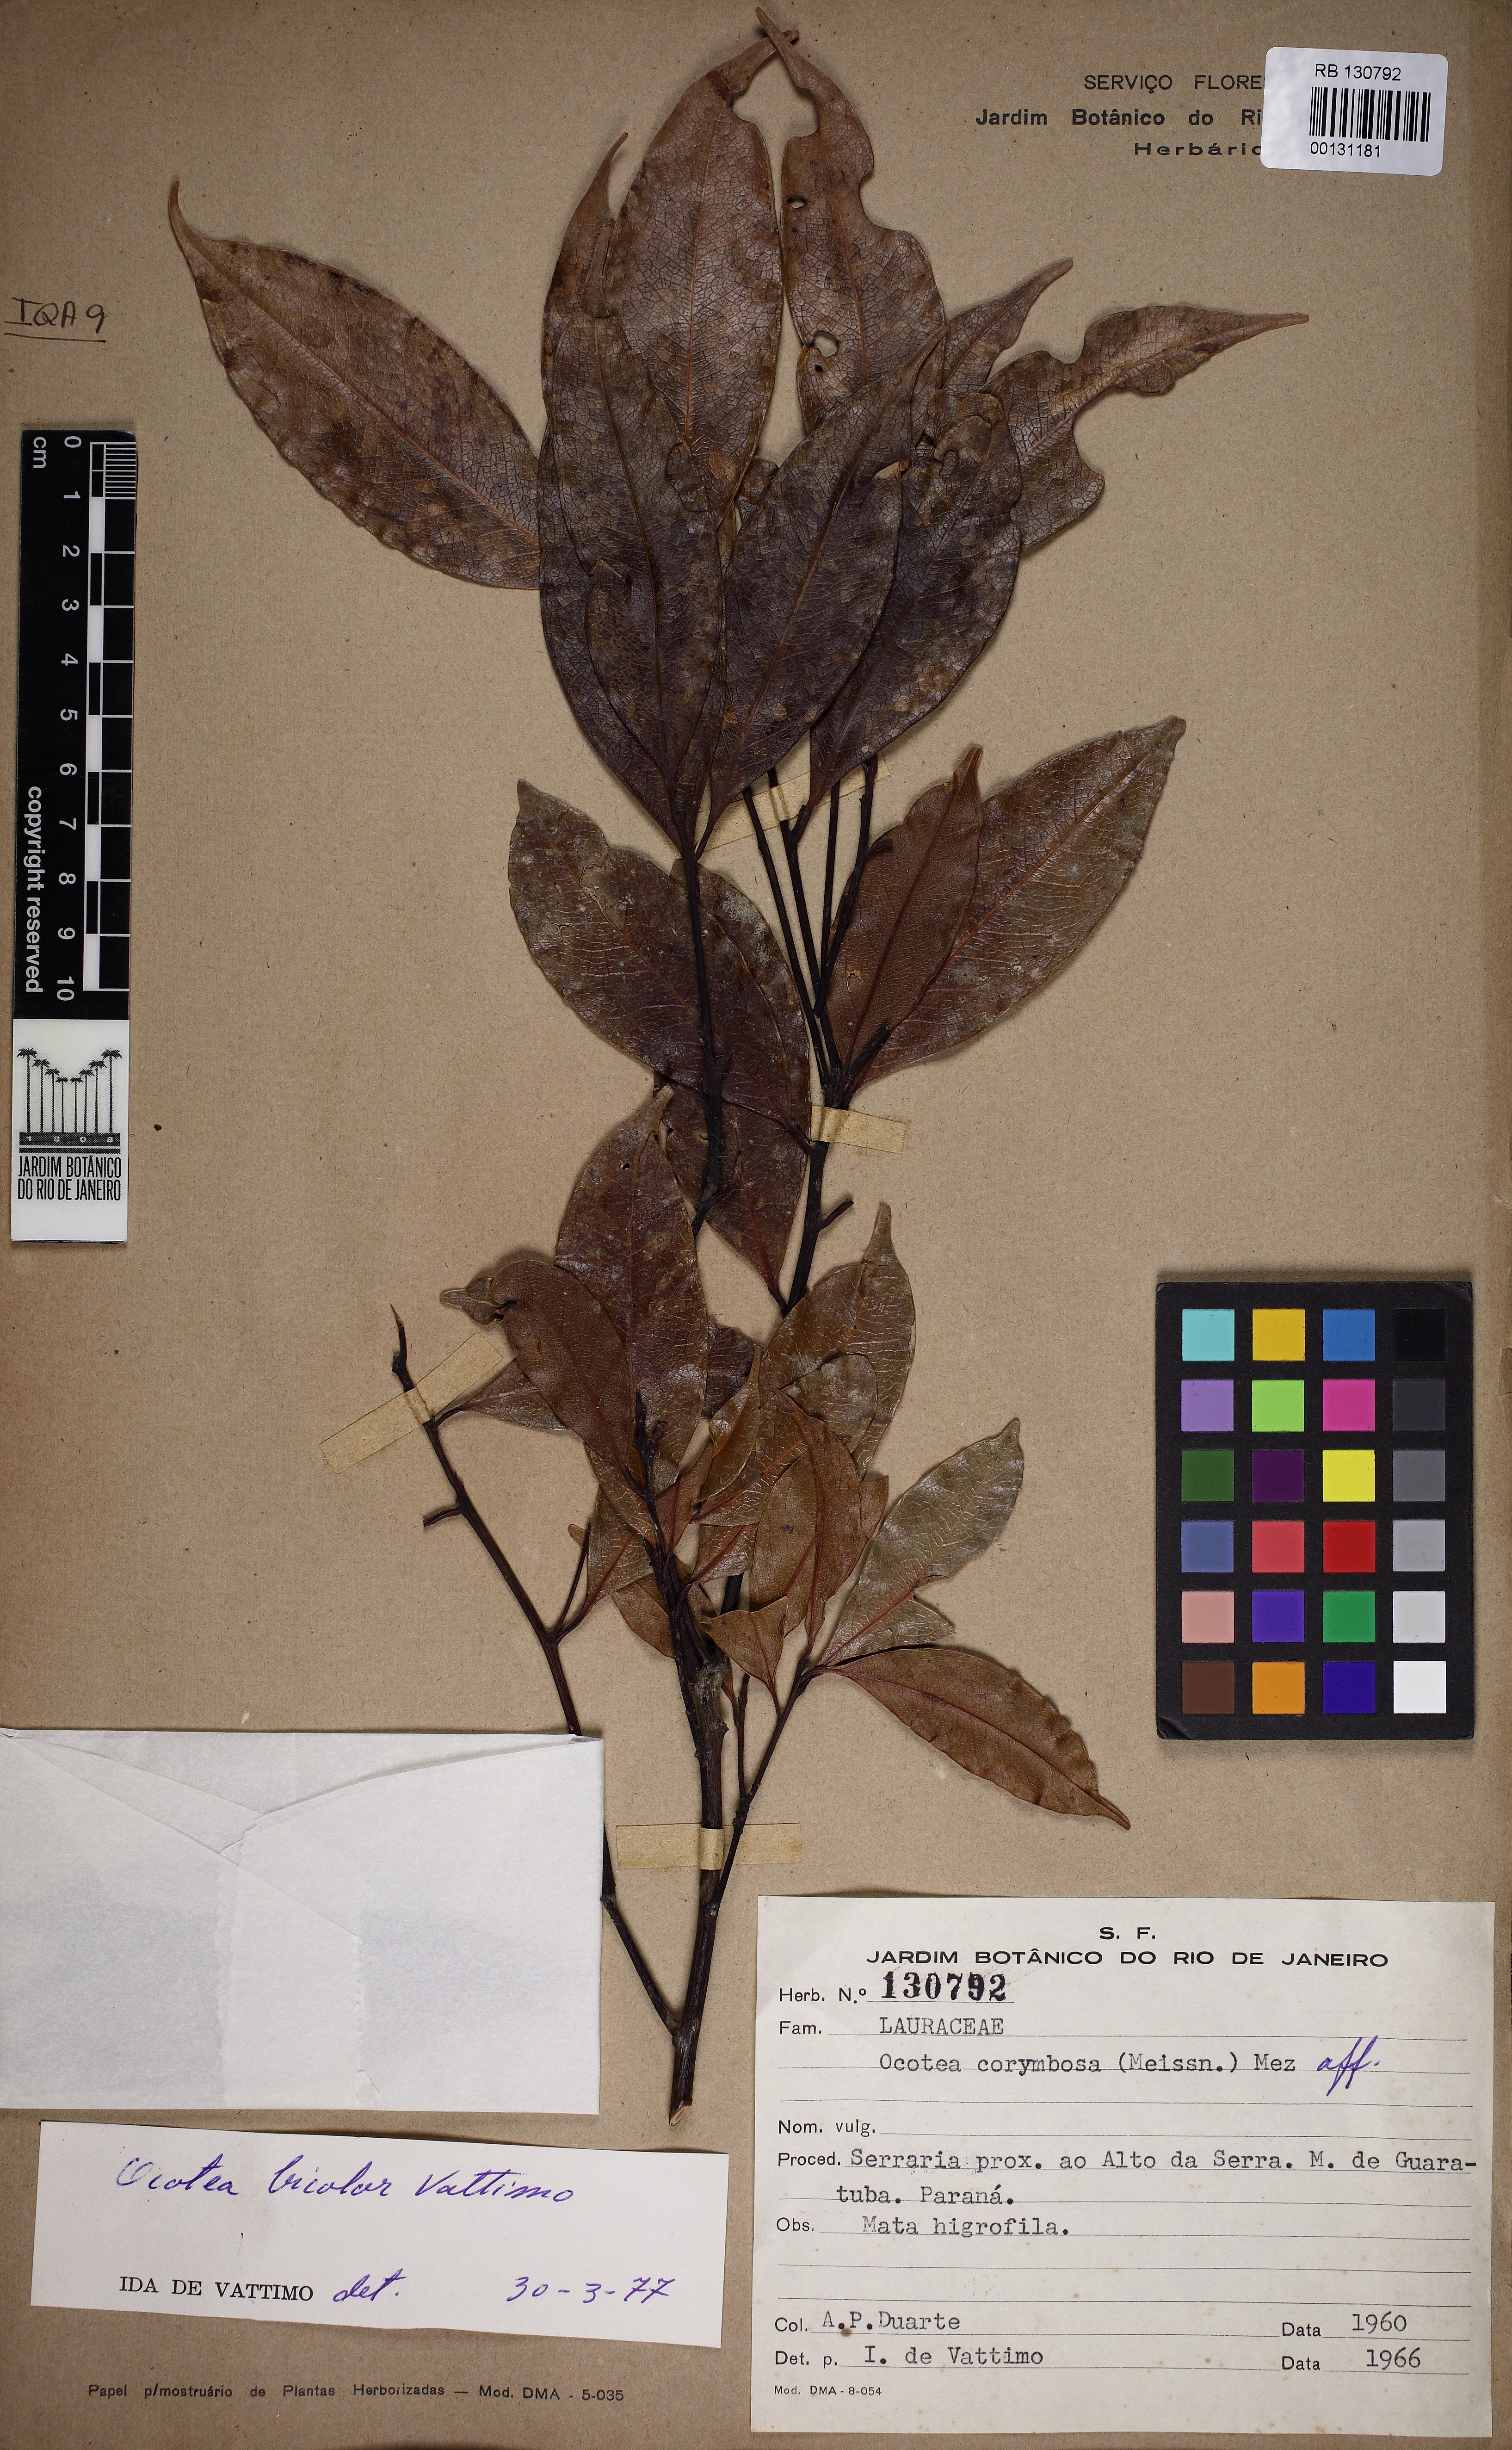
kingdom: Plantae
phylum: Tracheophyta
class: Magnoliopsida
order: Laurales
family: Lauraceae
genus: Ocotea
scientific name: Ocotea bicolor
